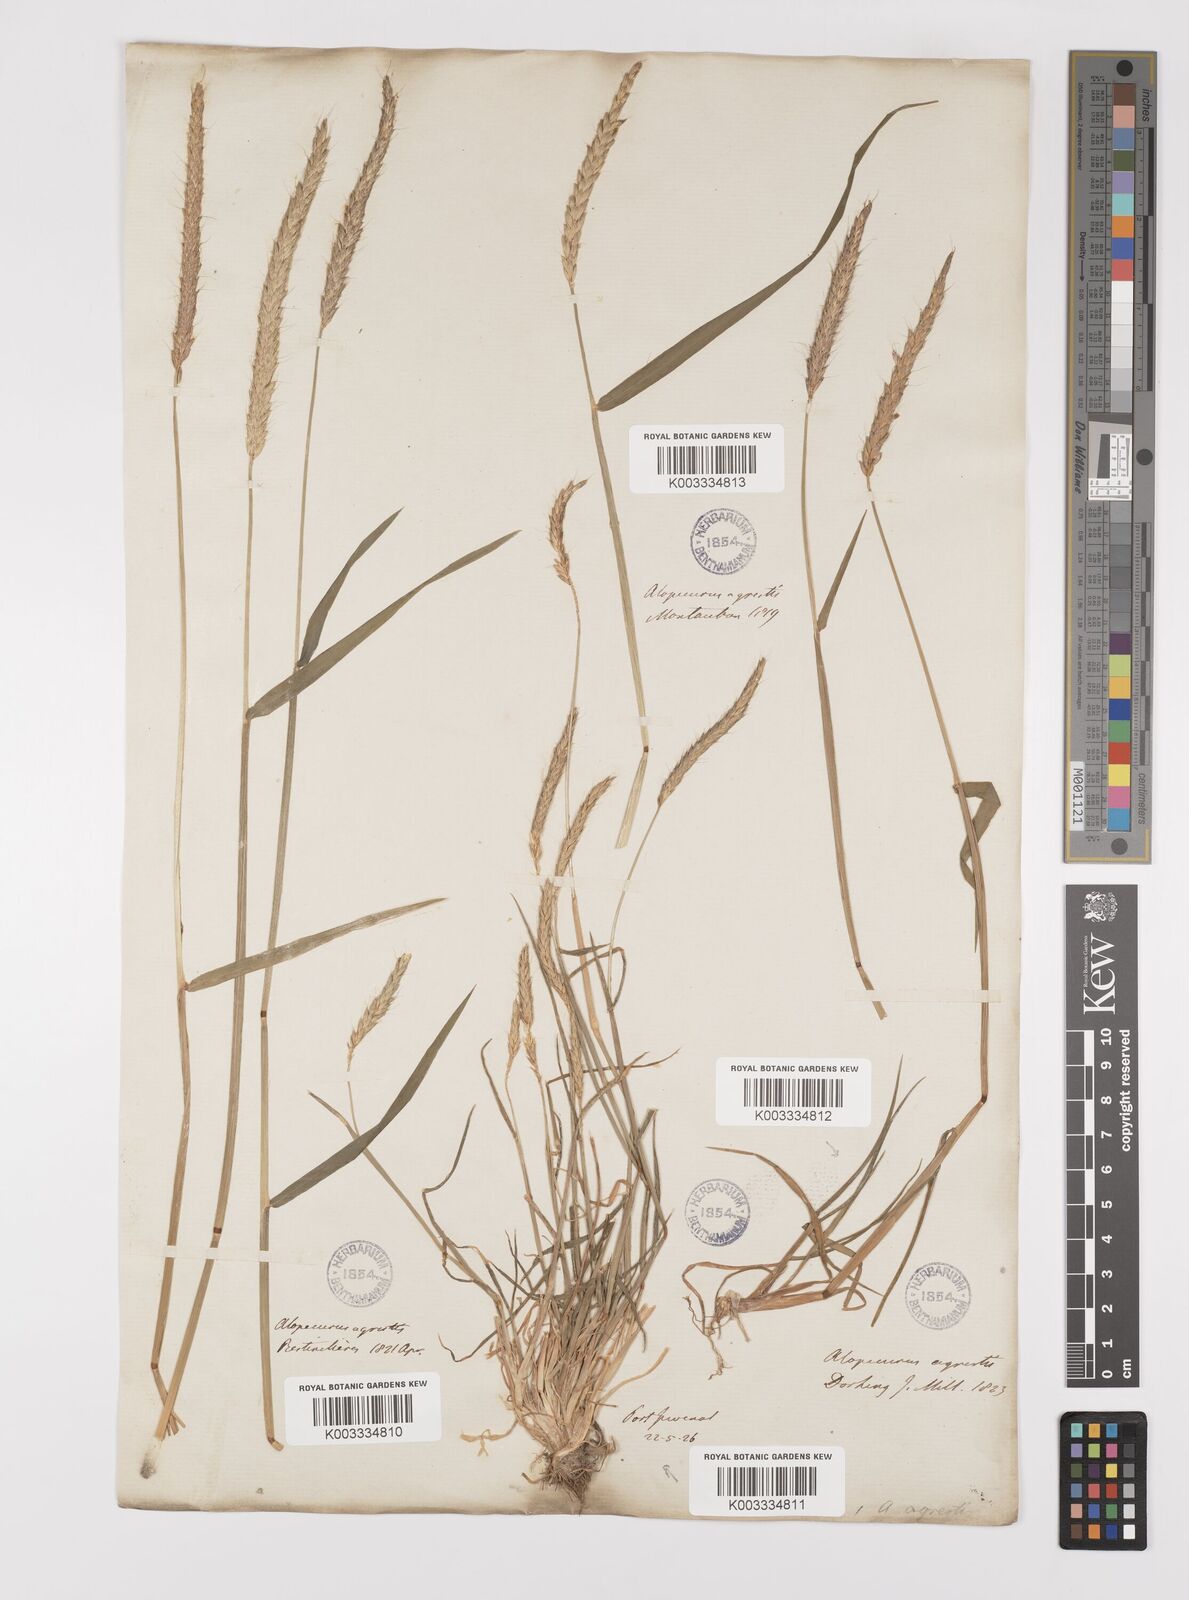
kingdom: Plantae
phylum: Tracheophyta
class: Liliopsida
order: Poales
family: Poaceae
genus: Alopecurus
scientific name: Alopecurus myosuroides
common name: Black-grass
